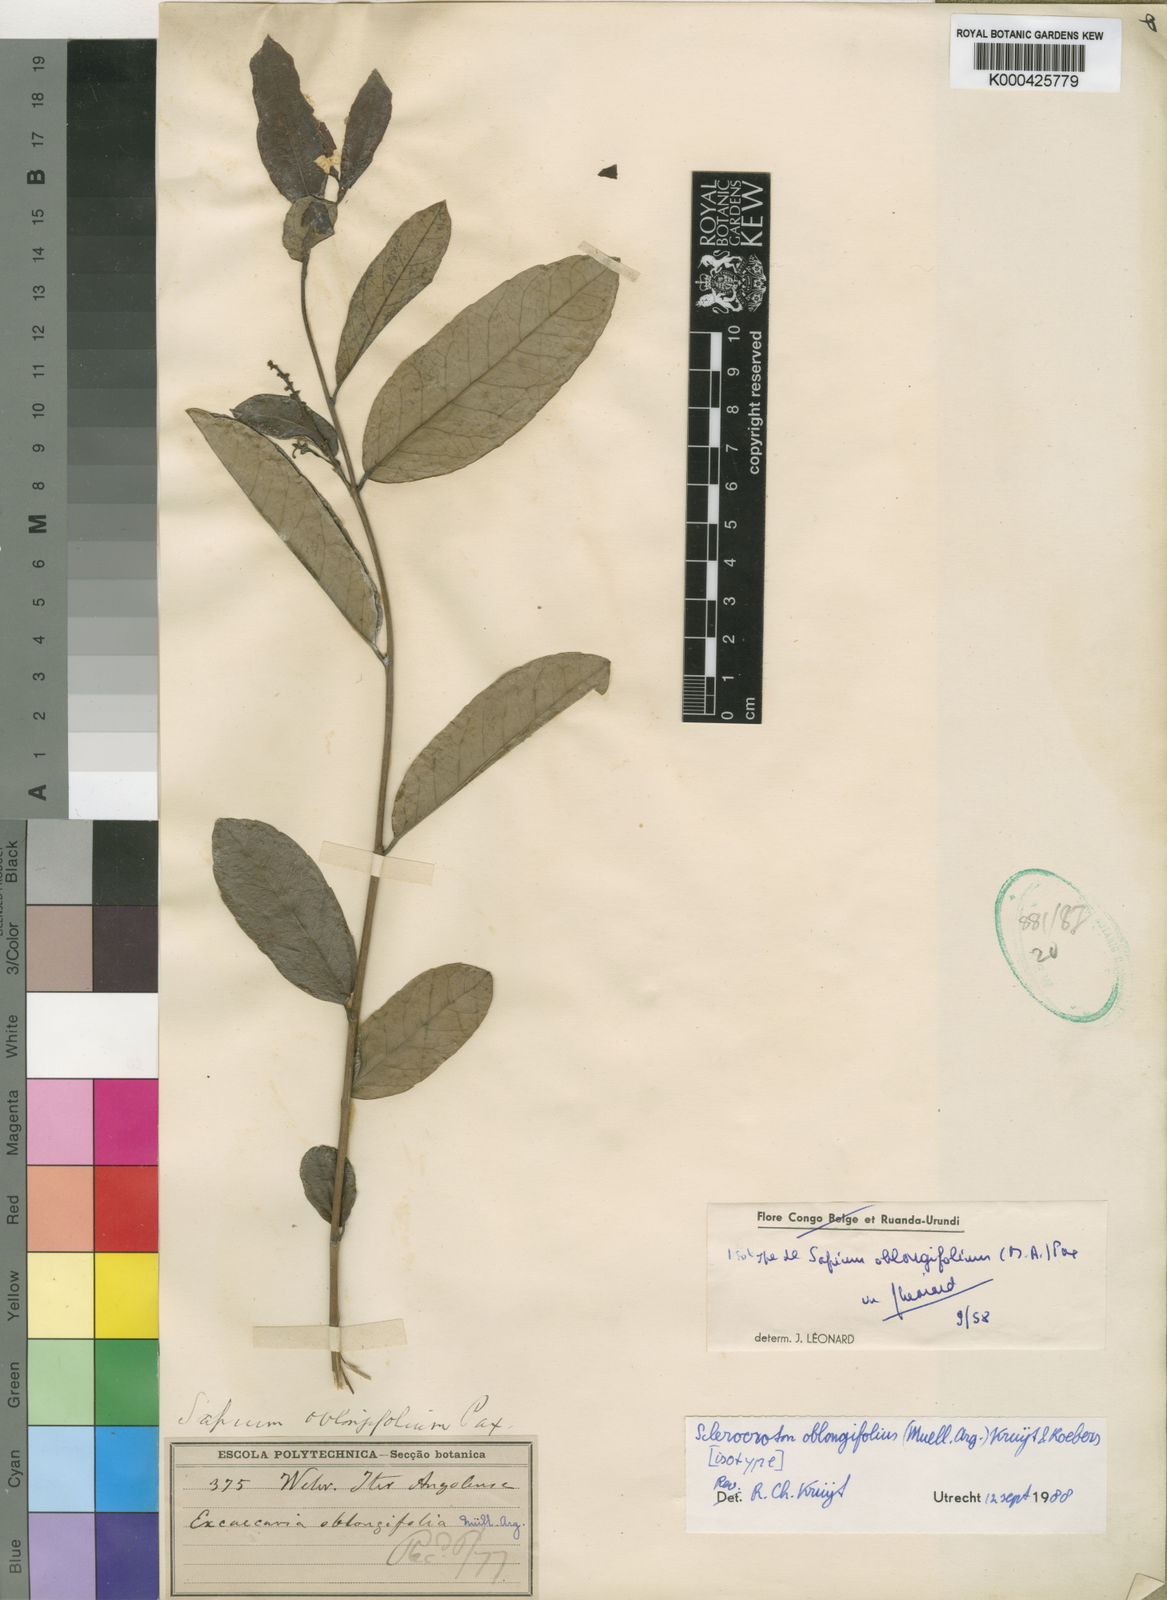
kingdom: Plantae
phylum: Tracheophyta
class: Magnoliopsida
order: Malpighiales
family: Euphorbiaceae
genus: Sapium
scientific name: Sapium
